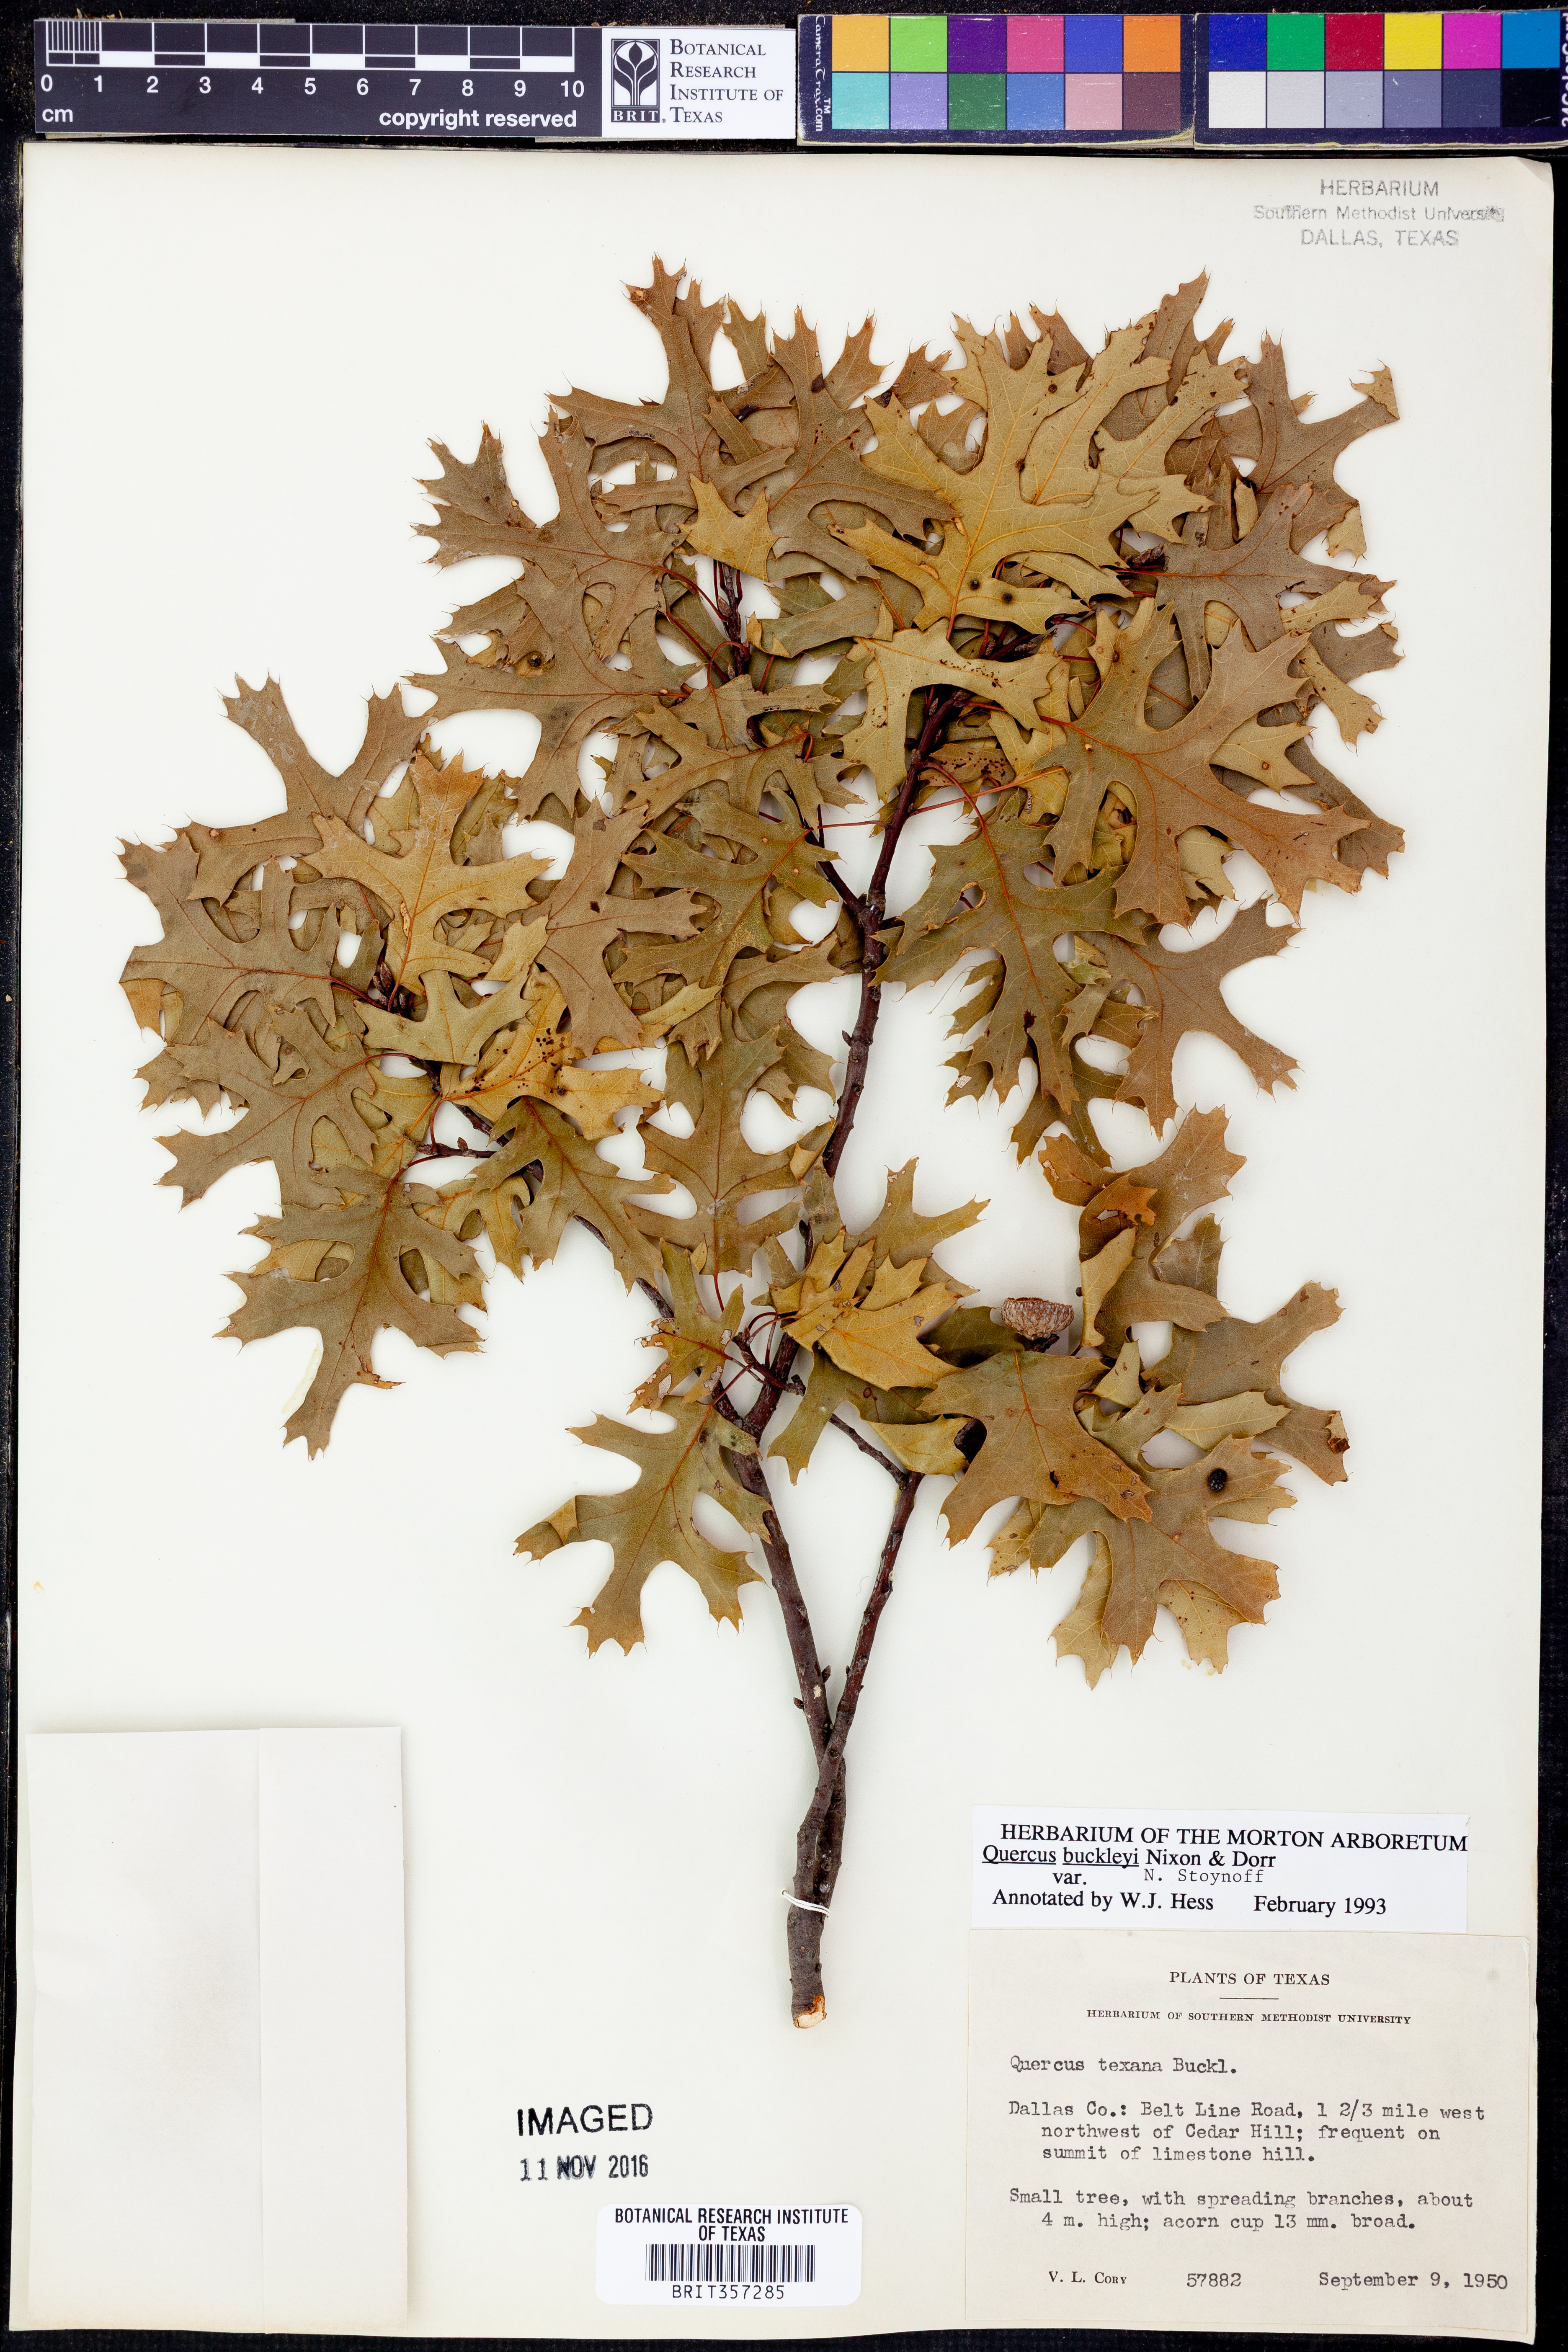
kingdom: Plantae
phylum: Tracheophyta
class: Magnoliopsida
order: Fagales
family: Fagaceae
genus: Quercus
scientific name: Quercus buckleyi
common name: Buckley oak
